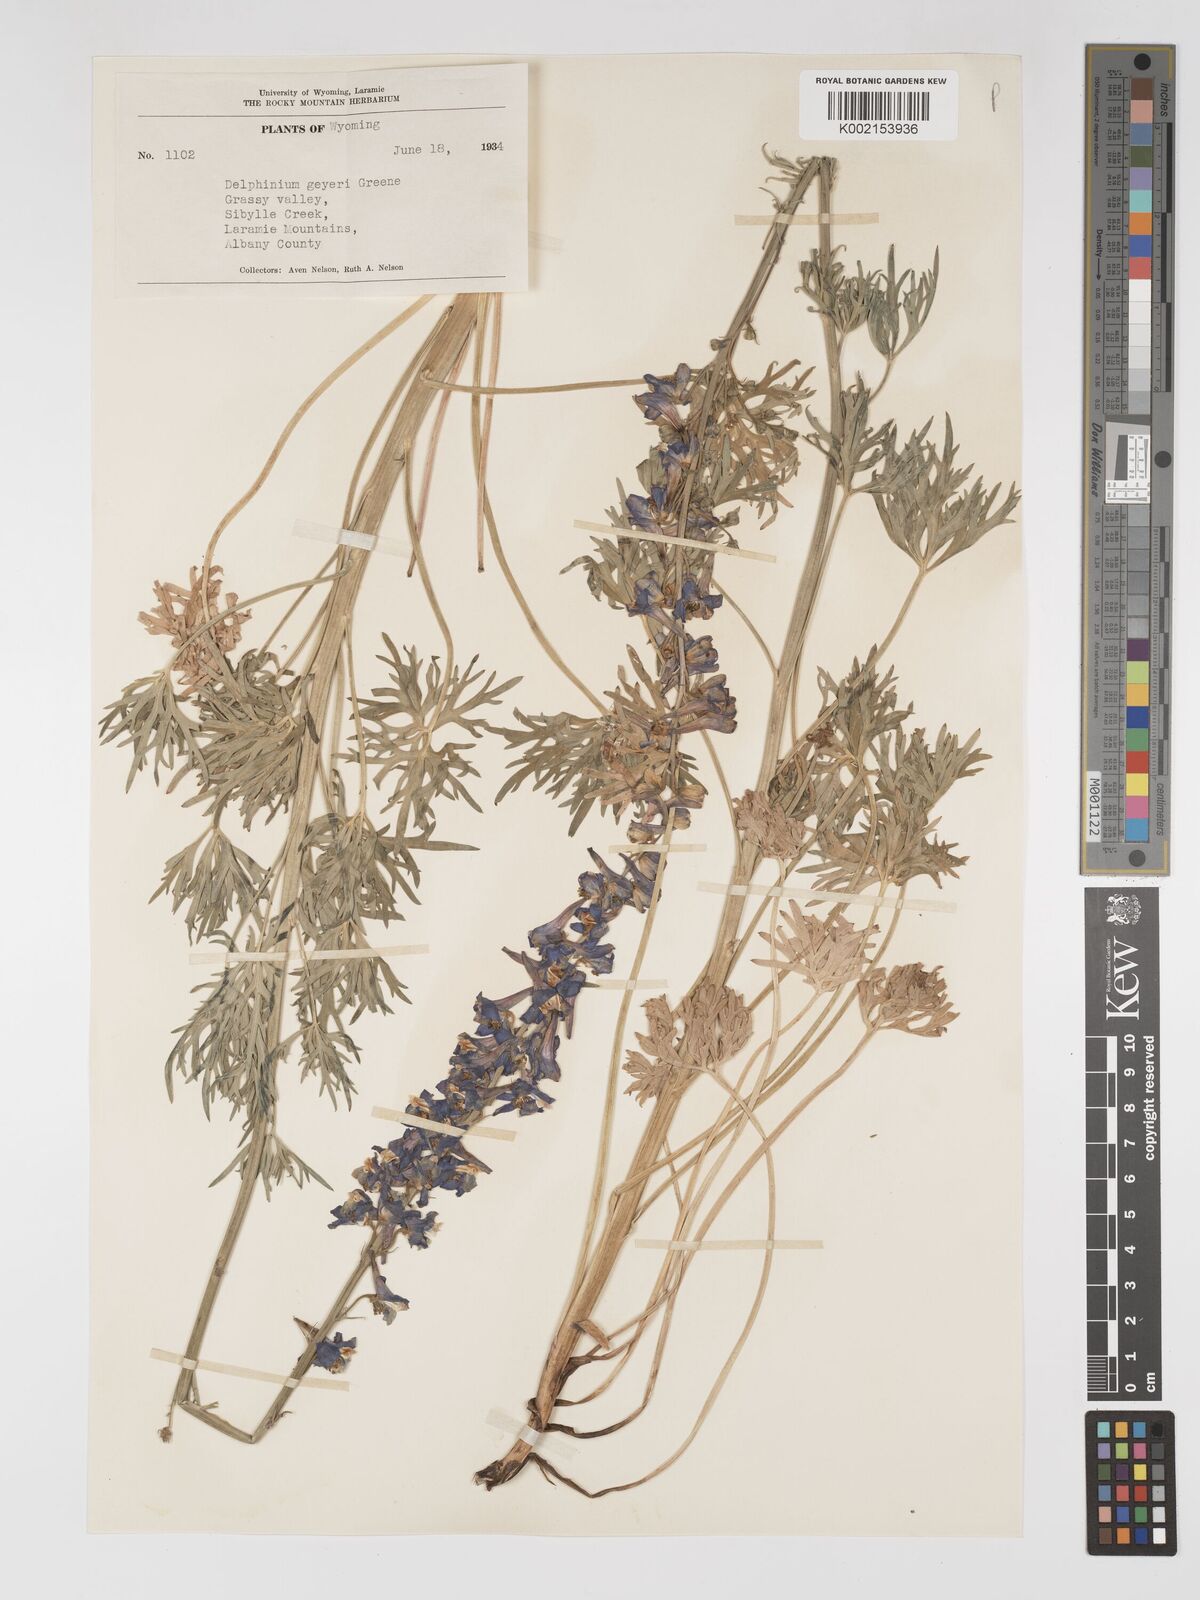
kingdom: Plantae
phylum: Tracheophyta
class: Magnoliopsida
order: Ranunculales
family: Ranunculaceae
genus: Delphinium
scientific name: Delphinium geyeri
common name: Geyer's larkspur
